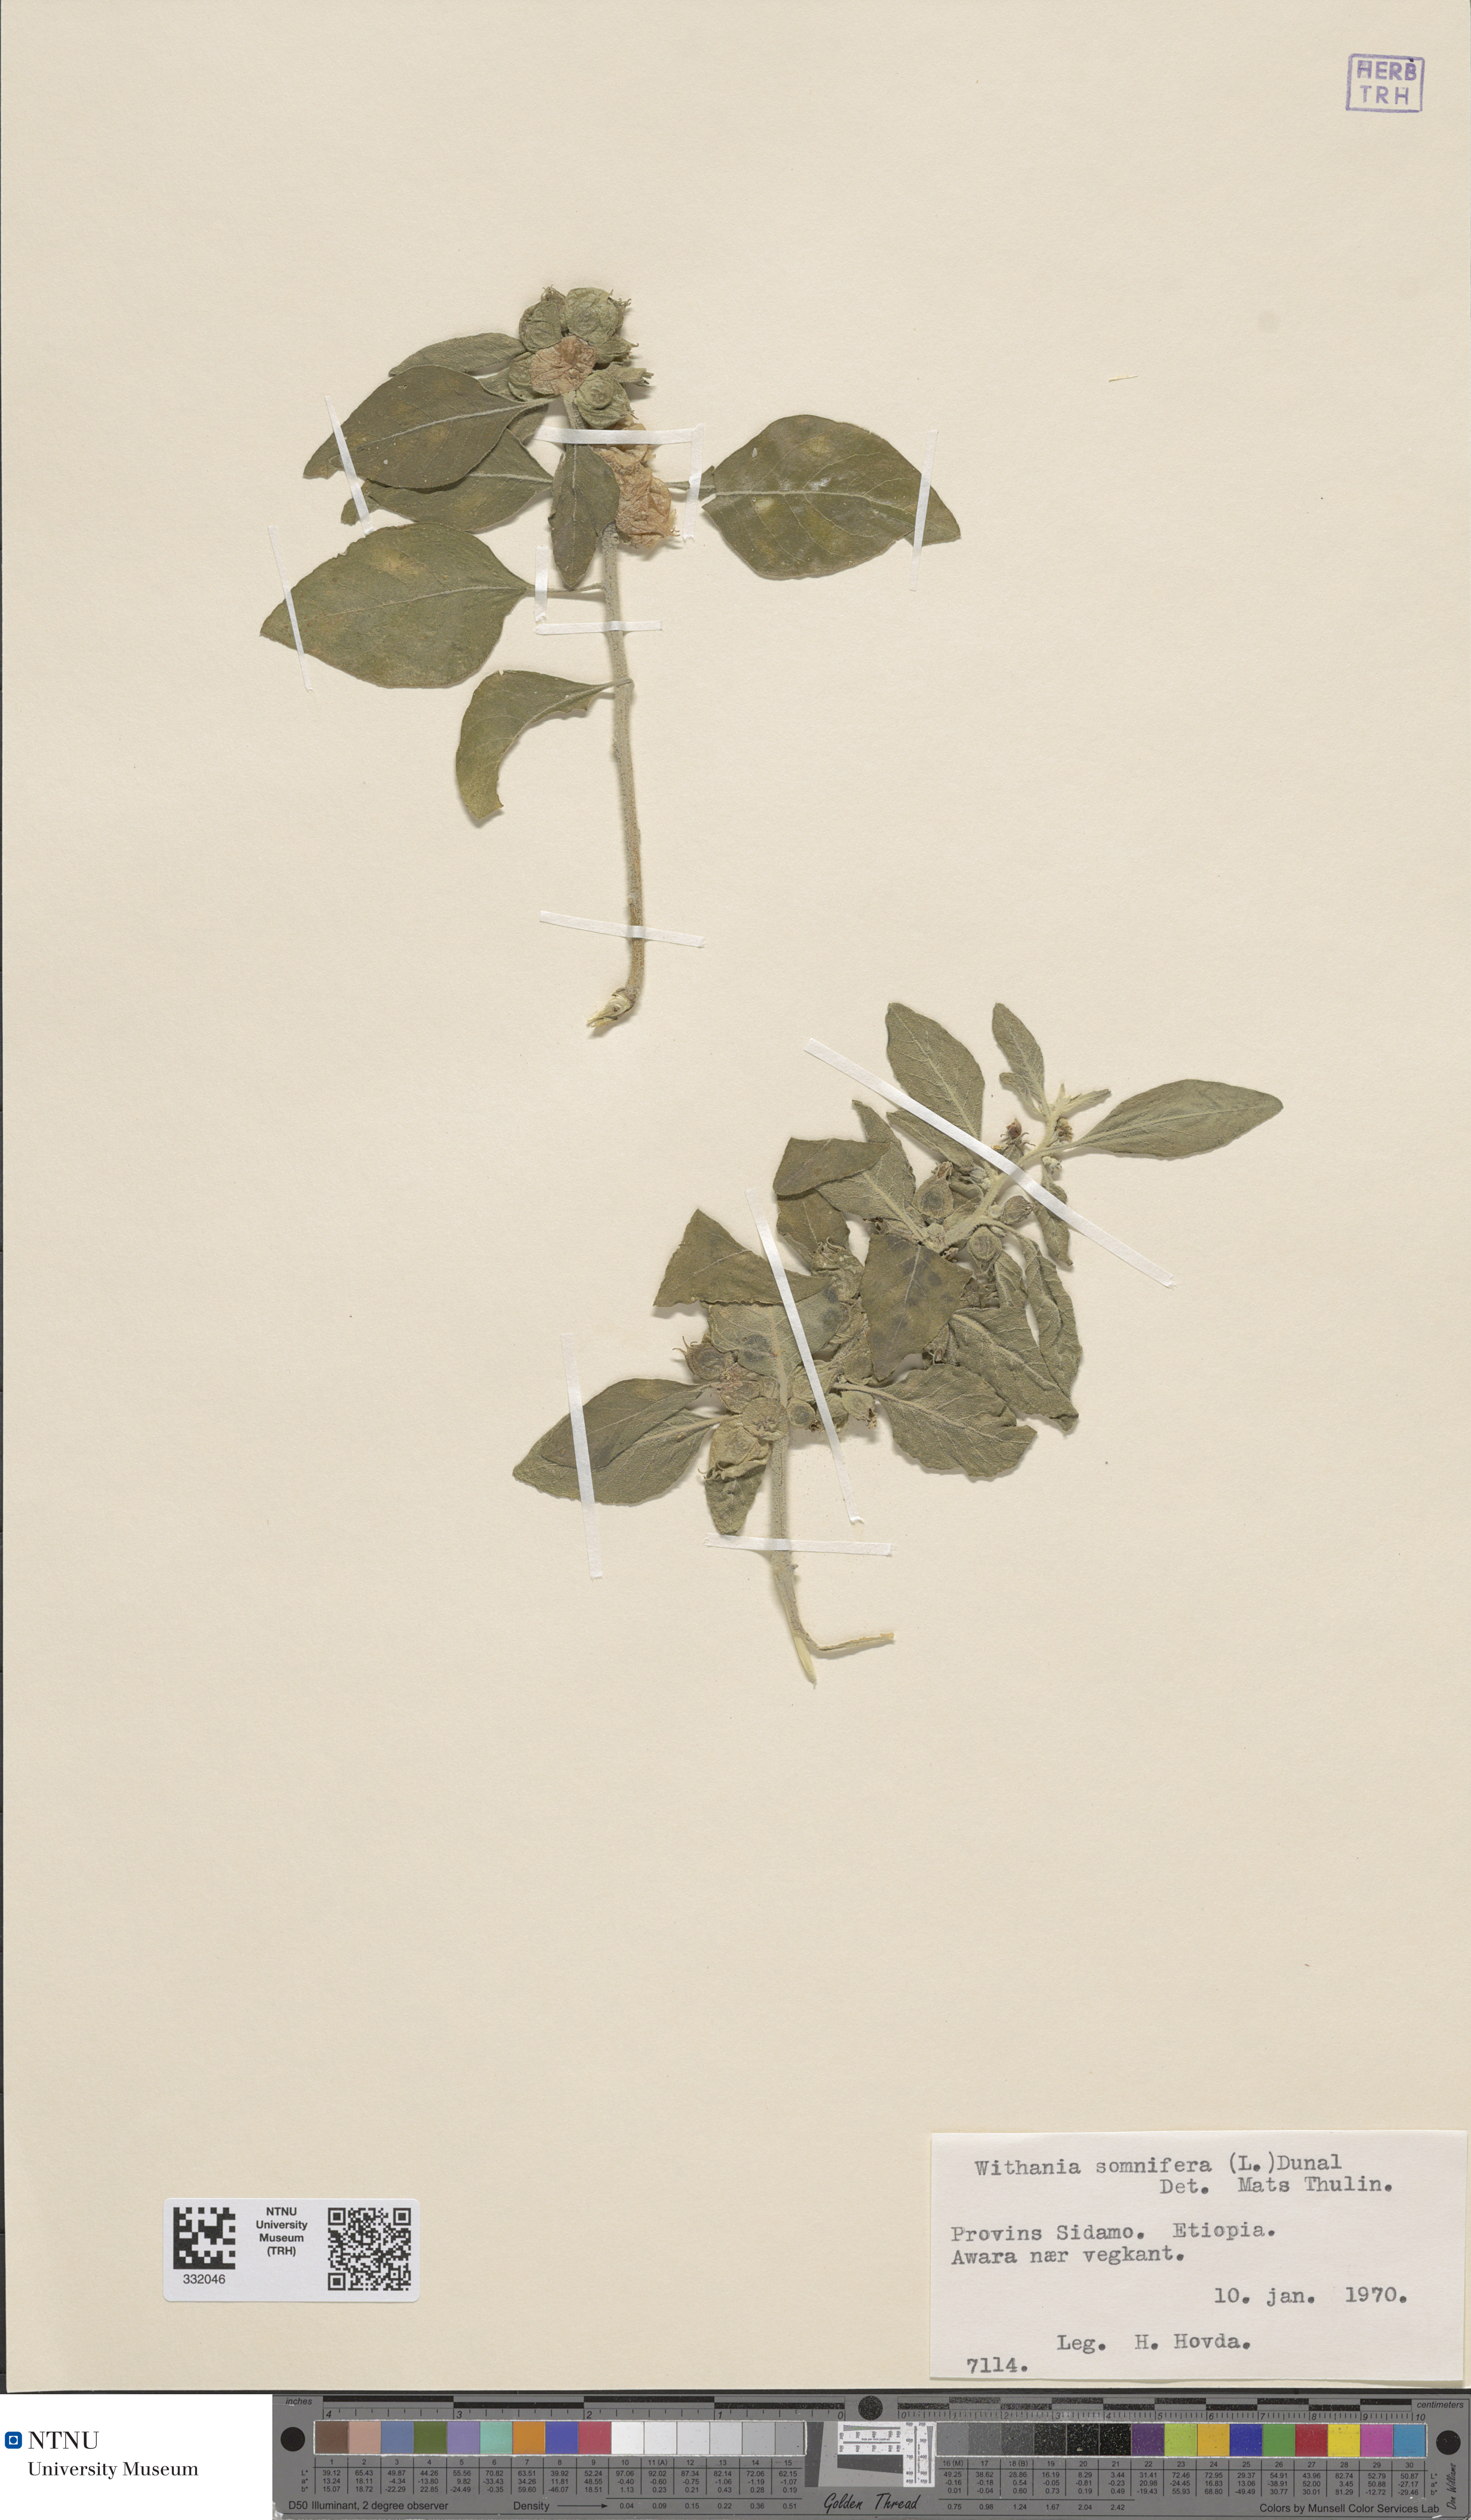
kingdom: Plantae
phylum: Tracheophyta
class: Magnoliopsida
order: Solanales
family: Solanaceae
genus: Withania
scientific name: Withania somnifera
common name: Winter-cherry
